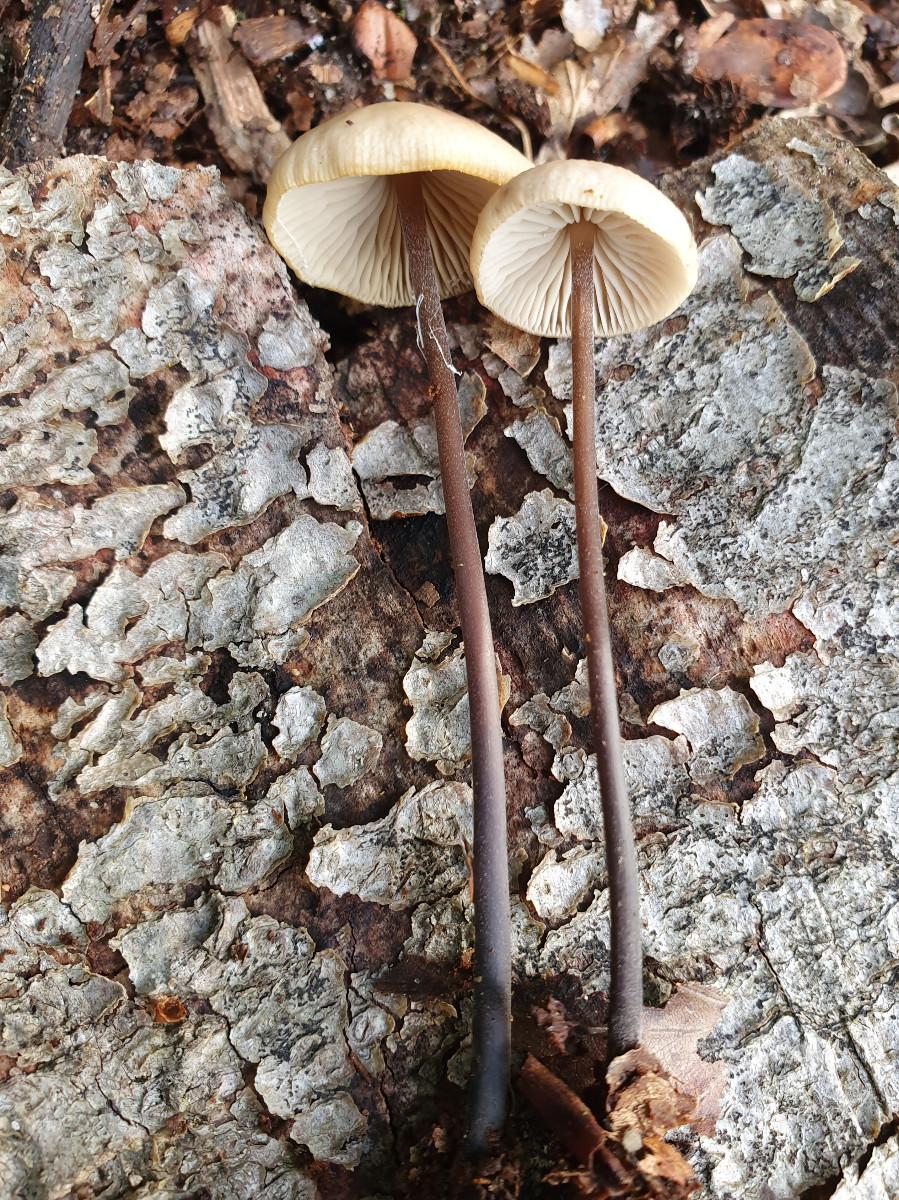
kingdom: Fungi
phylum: Basidiomycota
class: Agaricomycetes
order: Agaricales
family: Omphalotaceae
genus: Mycetinis
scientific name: Mycetinis alliaceus
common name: stor løghat
